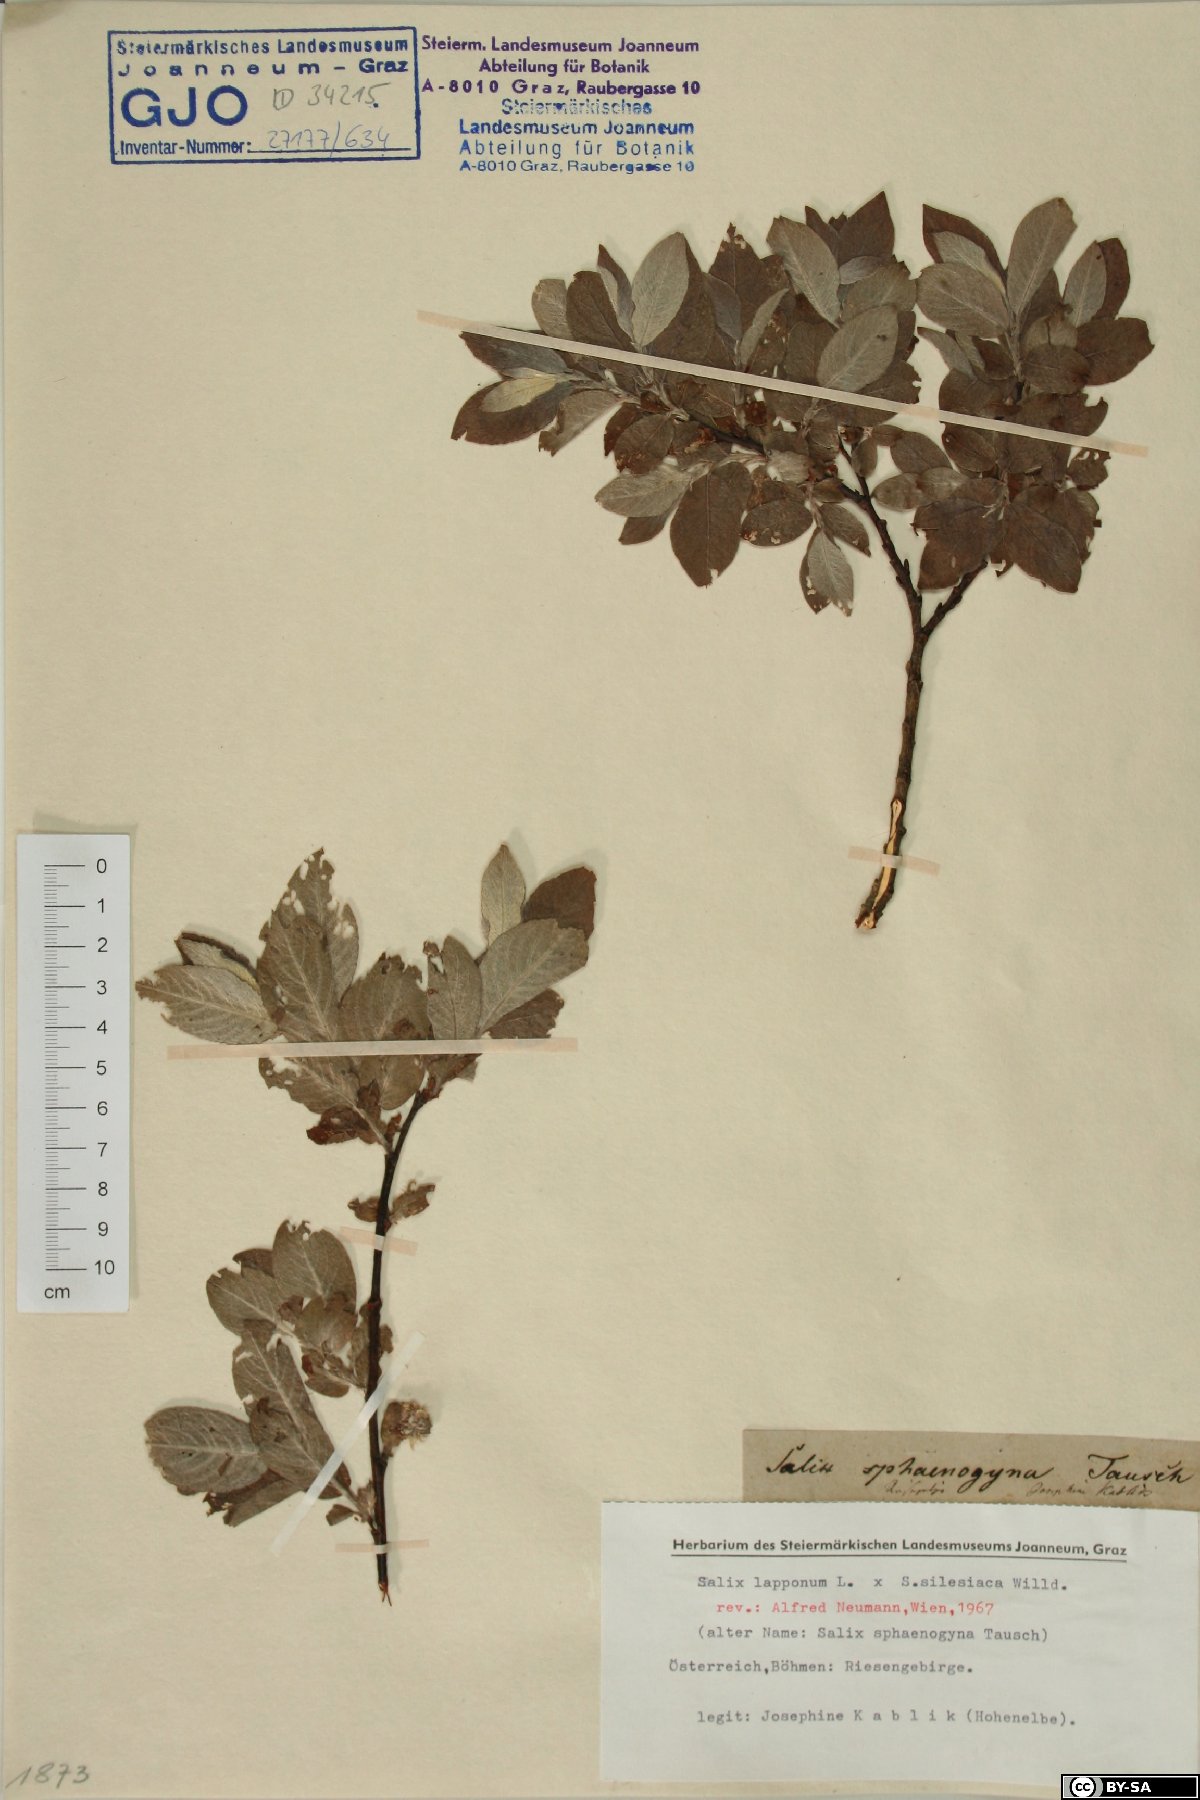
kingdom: Plantae
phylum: Tracheophyta
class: Magnoliopsida
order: Malpighiales
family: Salicaceae
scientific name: Salicaceae
